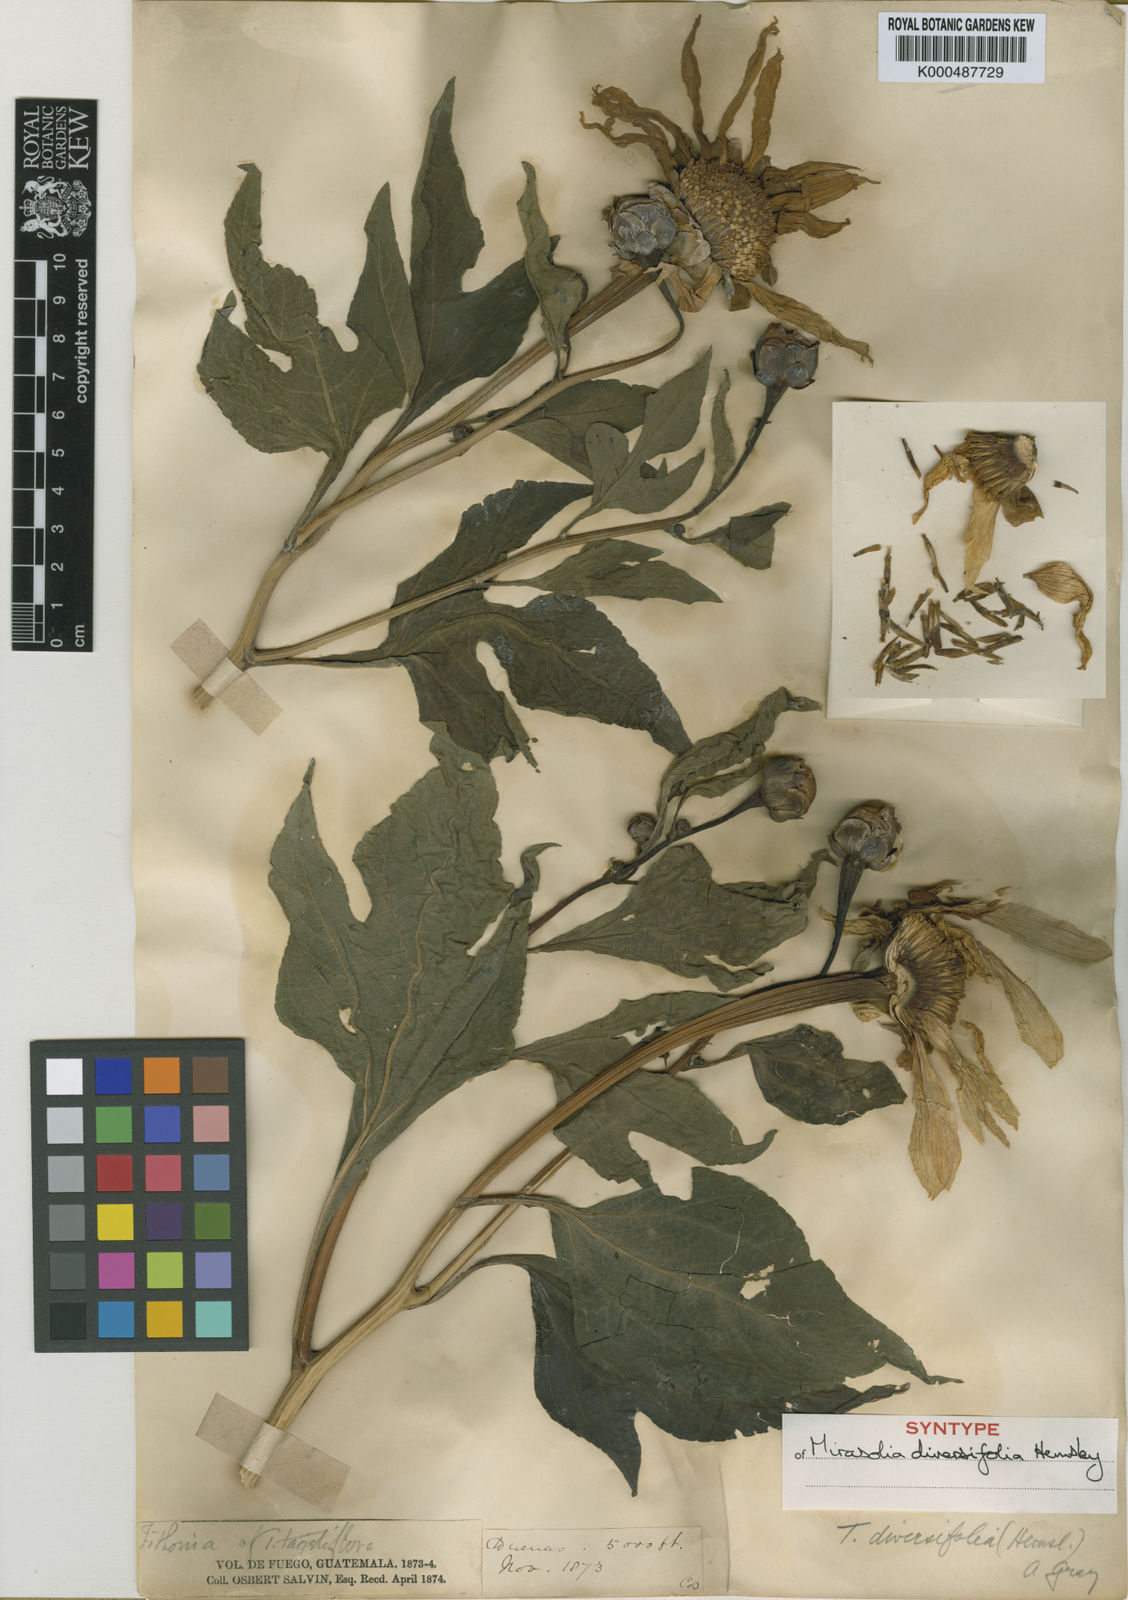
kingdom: Plantae
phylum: Tracheophyta
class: Magnoliopsida
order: Asterales
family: Asteraceae
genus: Tithonia
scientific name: Tithonia diversifolia
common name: Tree marigold
